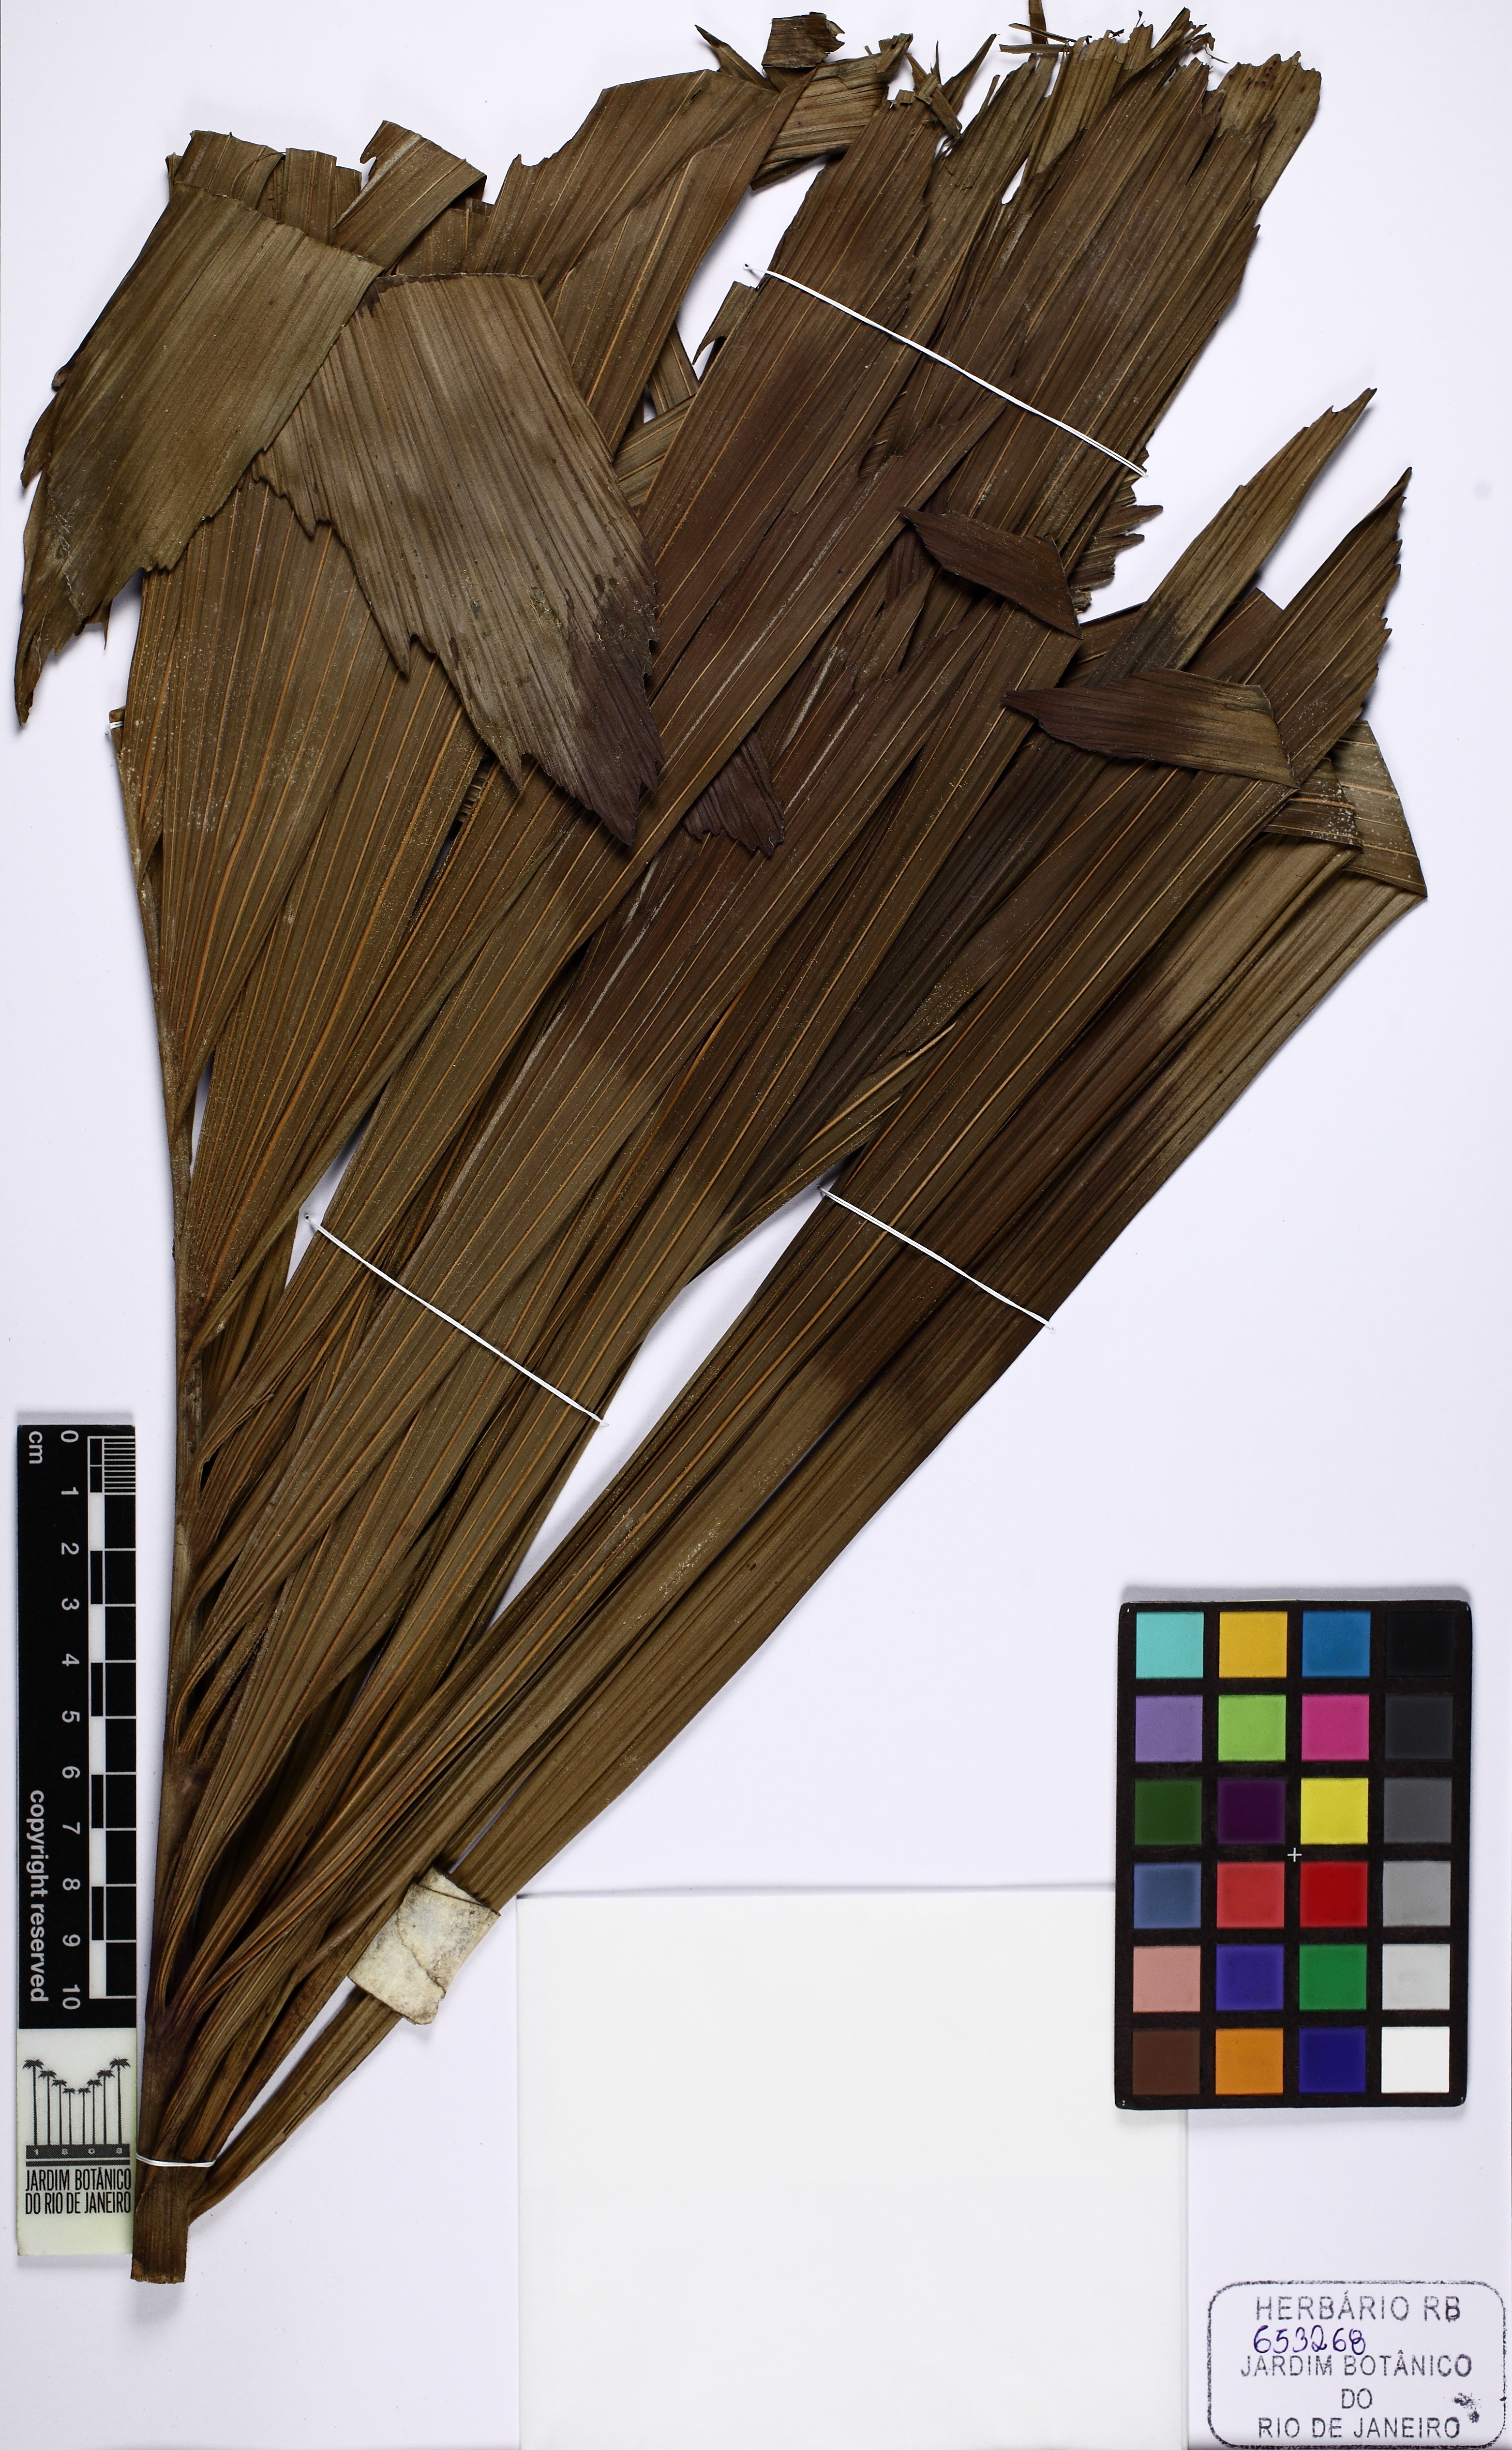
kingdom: Plantae
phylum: Tracheophyta
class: Liliopsida
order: Arecales
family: Arecaceae
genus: Socratea
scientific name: Socratea exorrhiza
